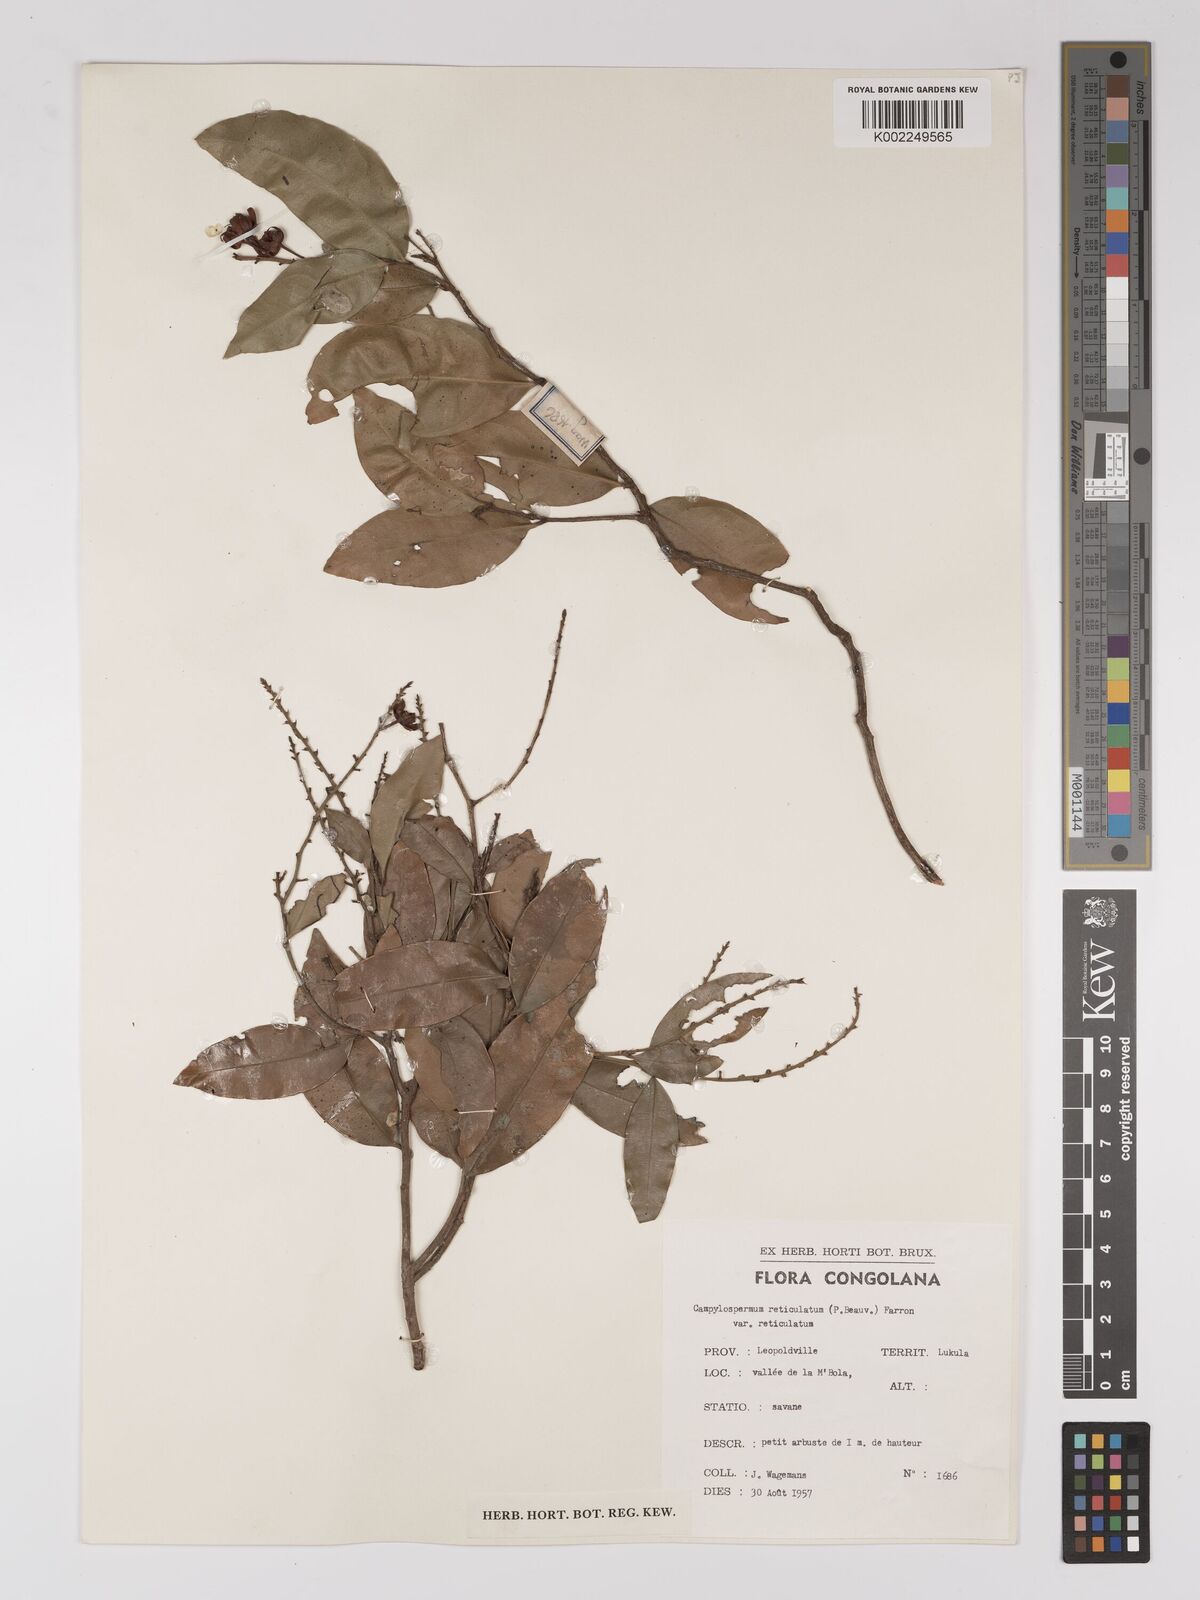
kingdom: Plantae
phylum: Tracheophyta
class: Magnoliopsida
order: Malpighiales
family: Ochnaceae
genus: Campylospermum
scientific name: Campylospermum reticulatum
